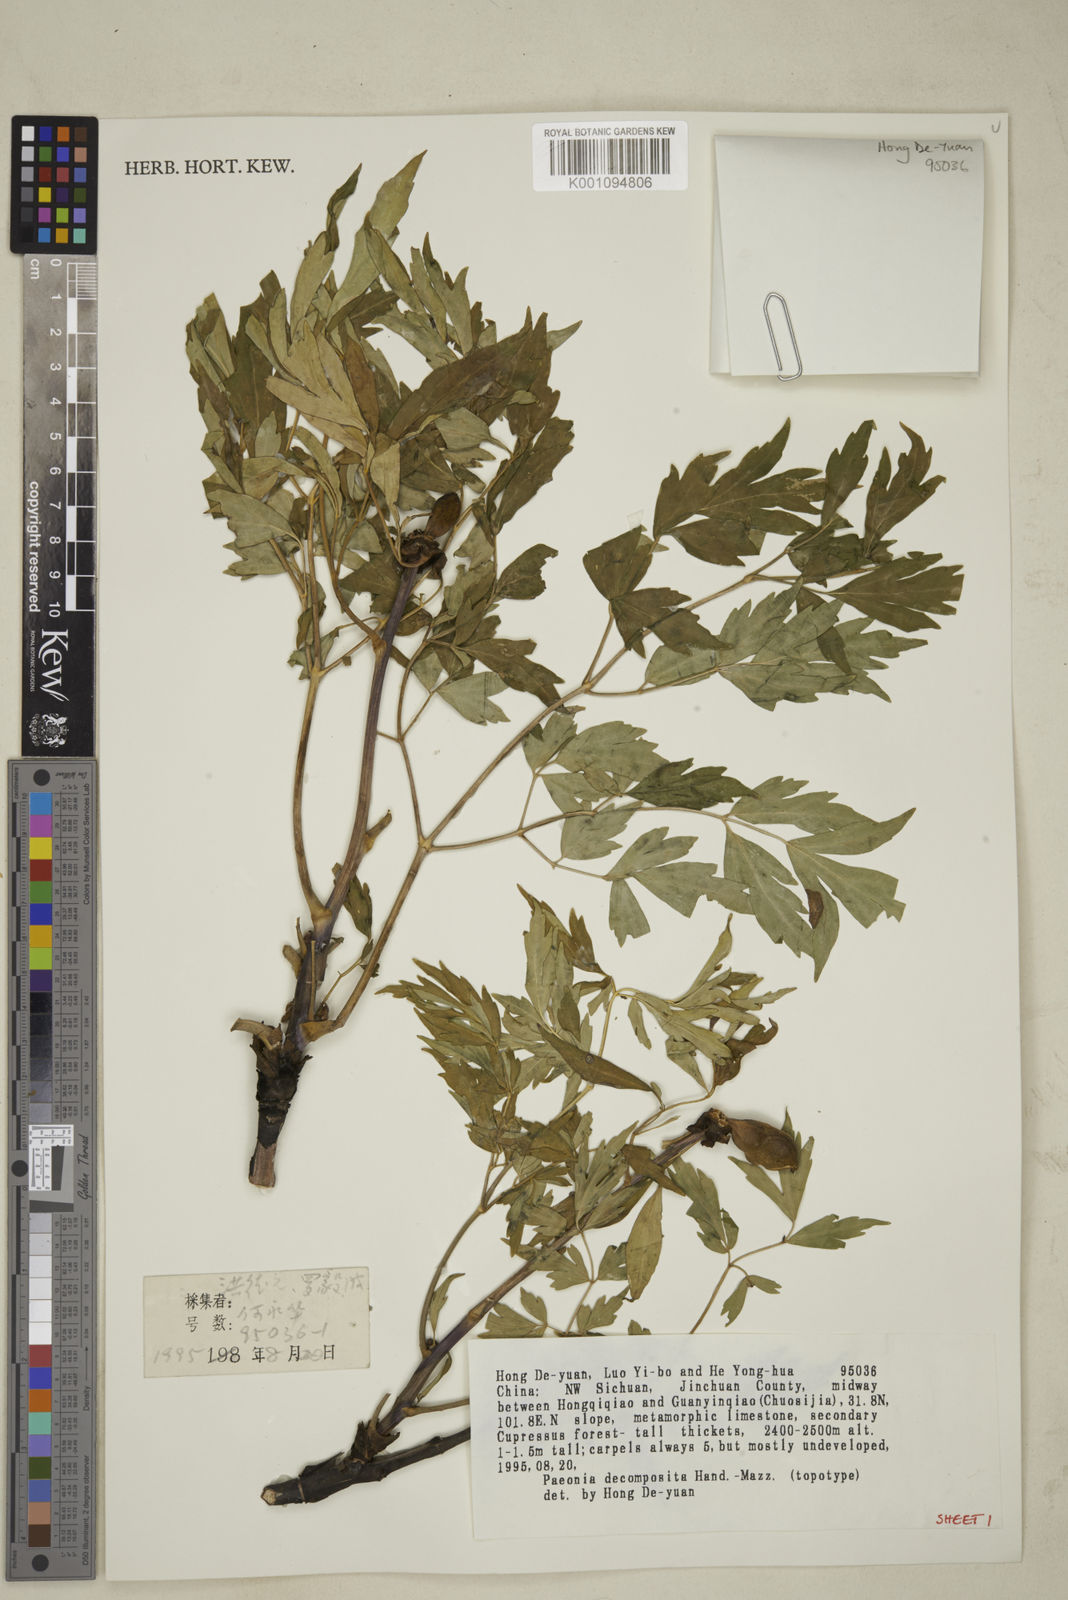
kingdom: Plantae
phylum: Tracheophyta
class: Magnoliopsida
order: Saxifragales
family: Paeoniaceae
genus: Paeonia
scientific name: Paeonia suffruticosa
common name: Moutan peony
